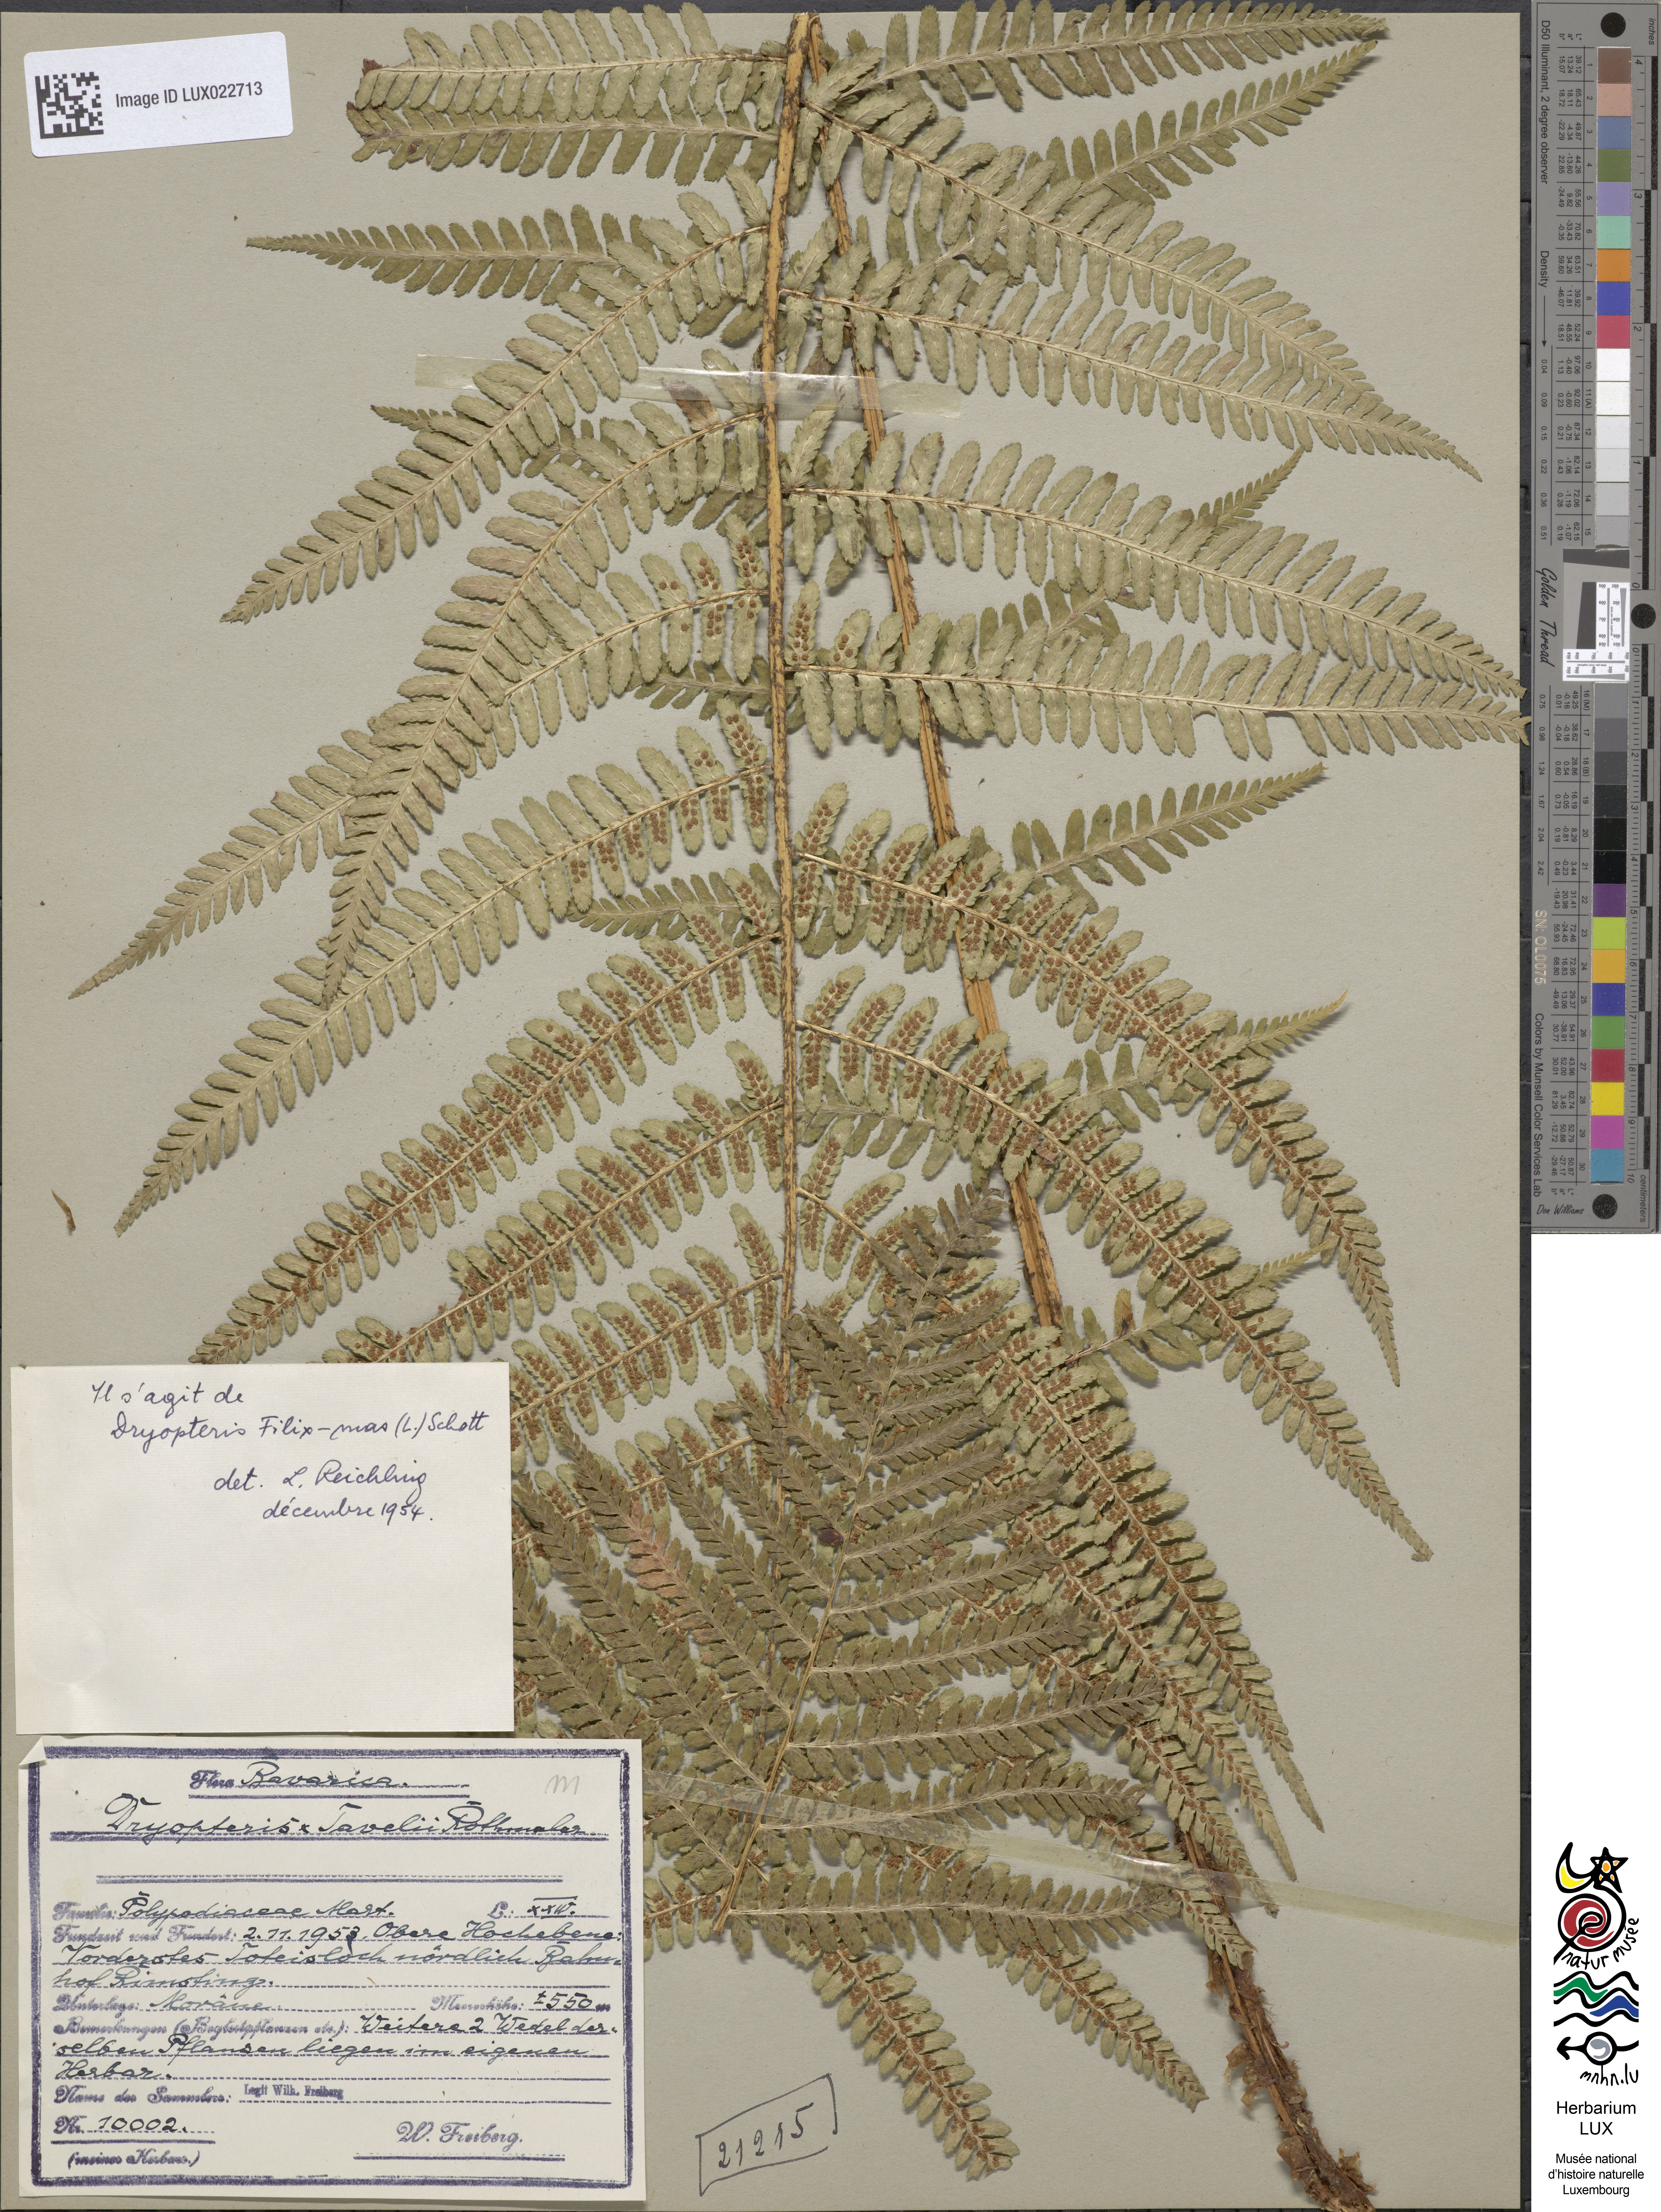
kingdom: Plantae
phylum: Tracheophyta
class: Polypodiopsida
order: Polypodiales
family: Dryopteridaceae
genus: Dryopteris
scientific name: Dryopteris filix-mas
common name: Male fern
